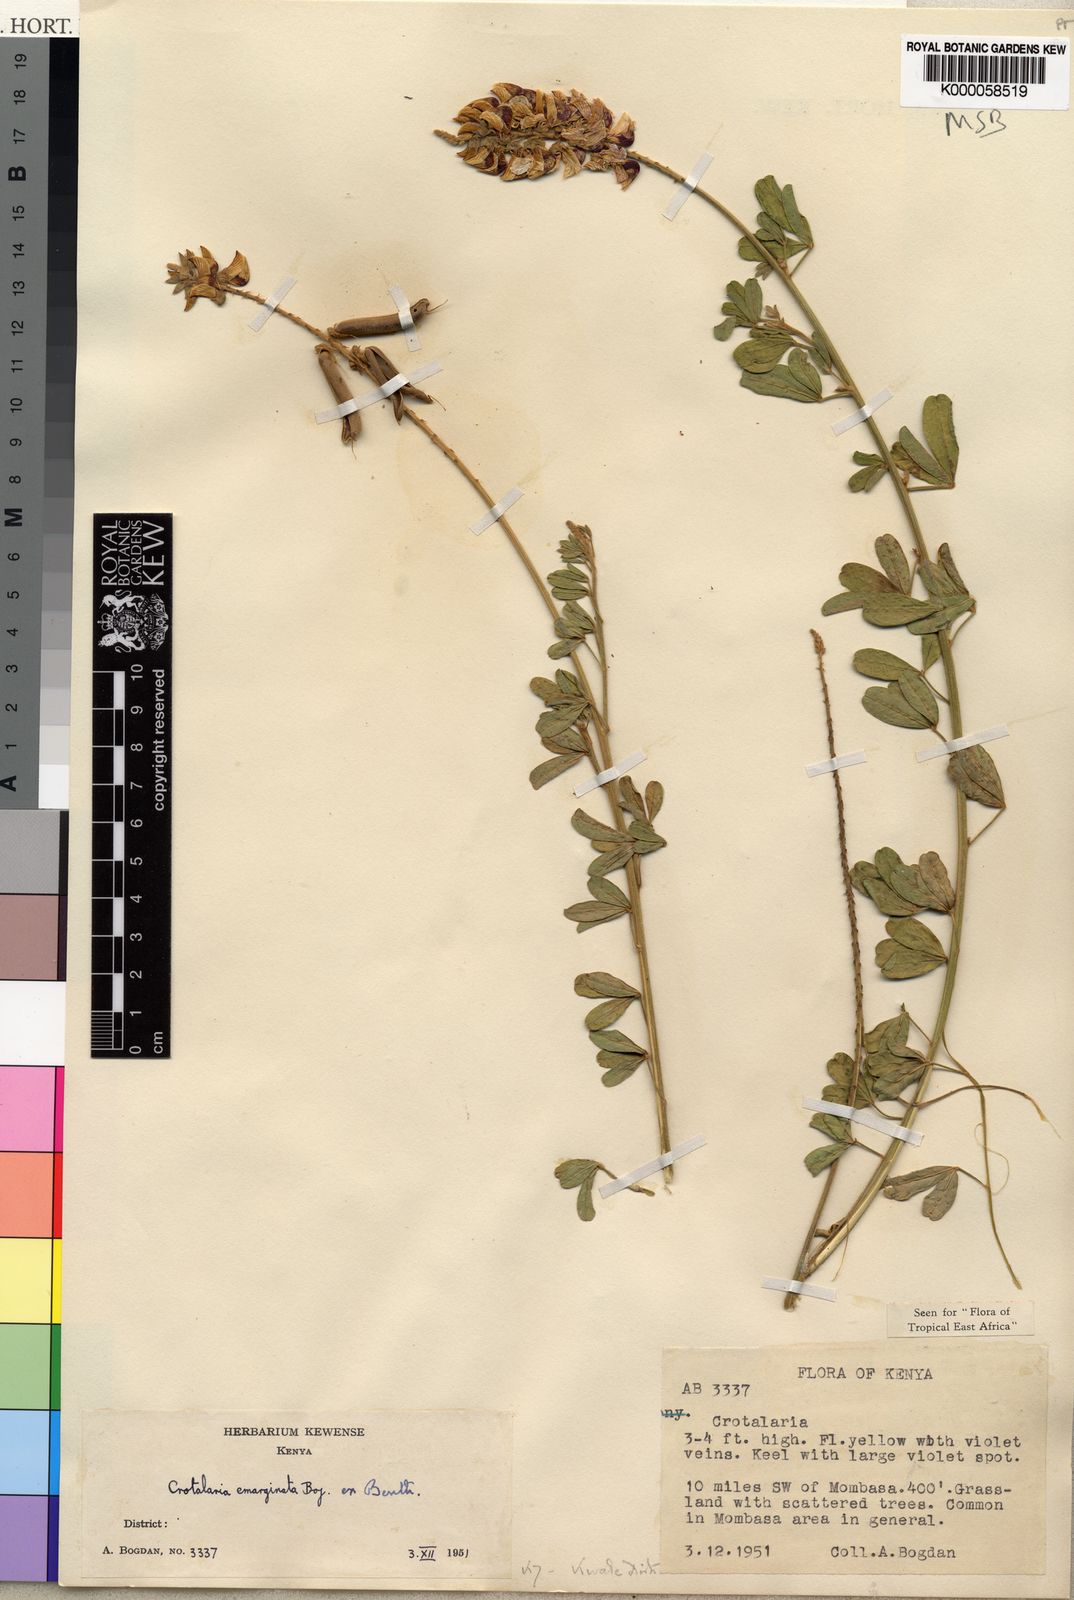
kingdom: Plantae
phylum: Tracheophyta
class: Magnoliopsida
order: Fabales
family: Fabaceae
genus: Crotalaria
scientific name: Crotalaria emarginata
